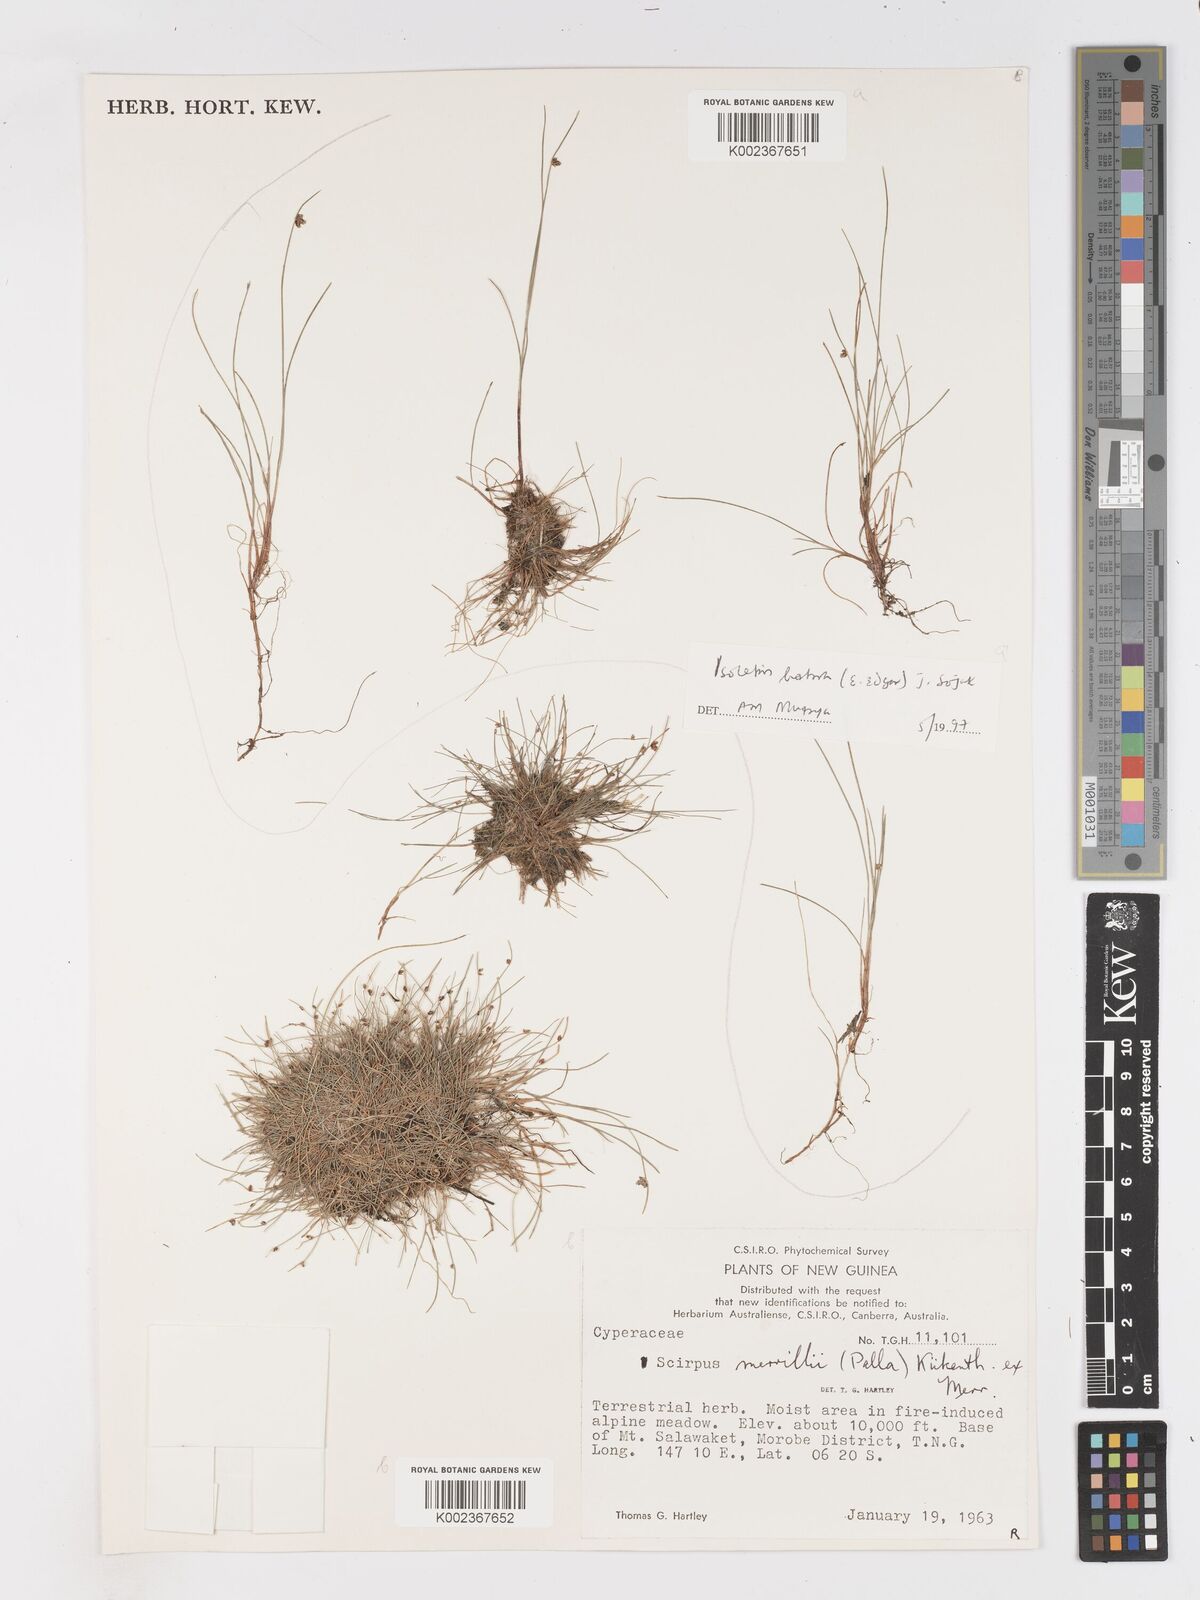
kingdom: Plantae
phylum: Tracheophyta
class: Liliopsida
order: Poales
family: Cyperaceae
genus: Isolepis
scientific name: Isolepis subtilissima
